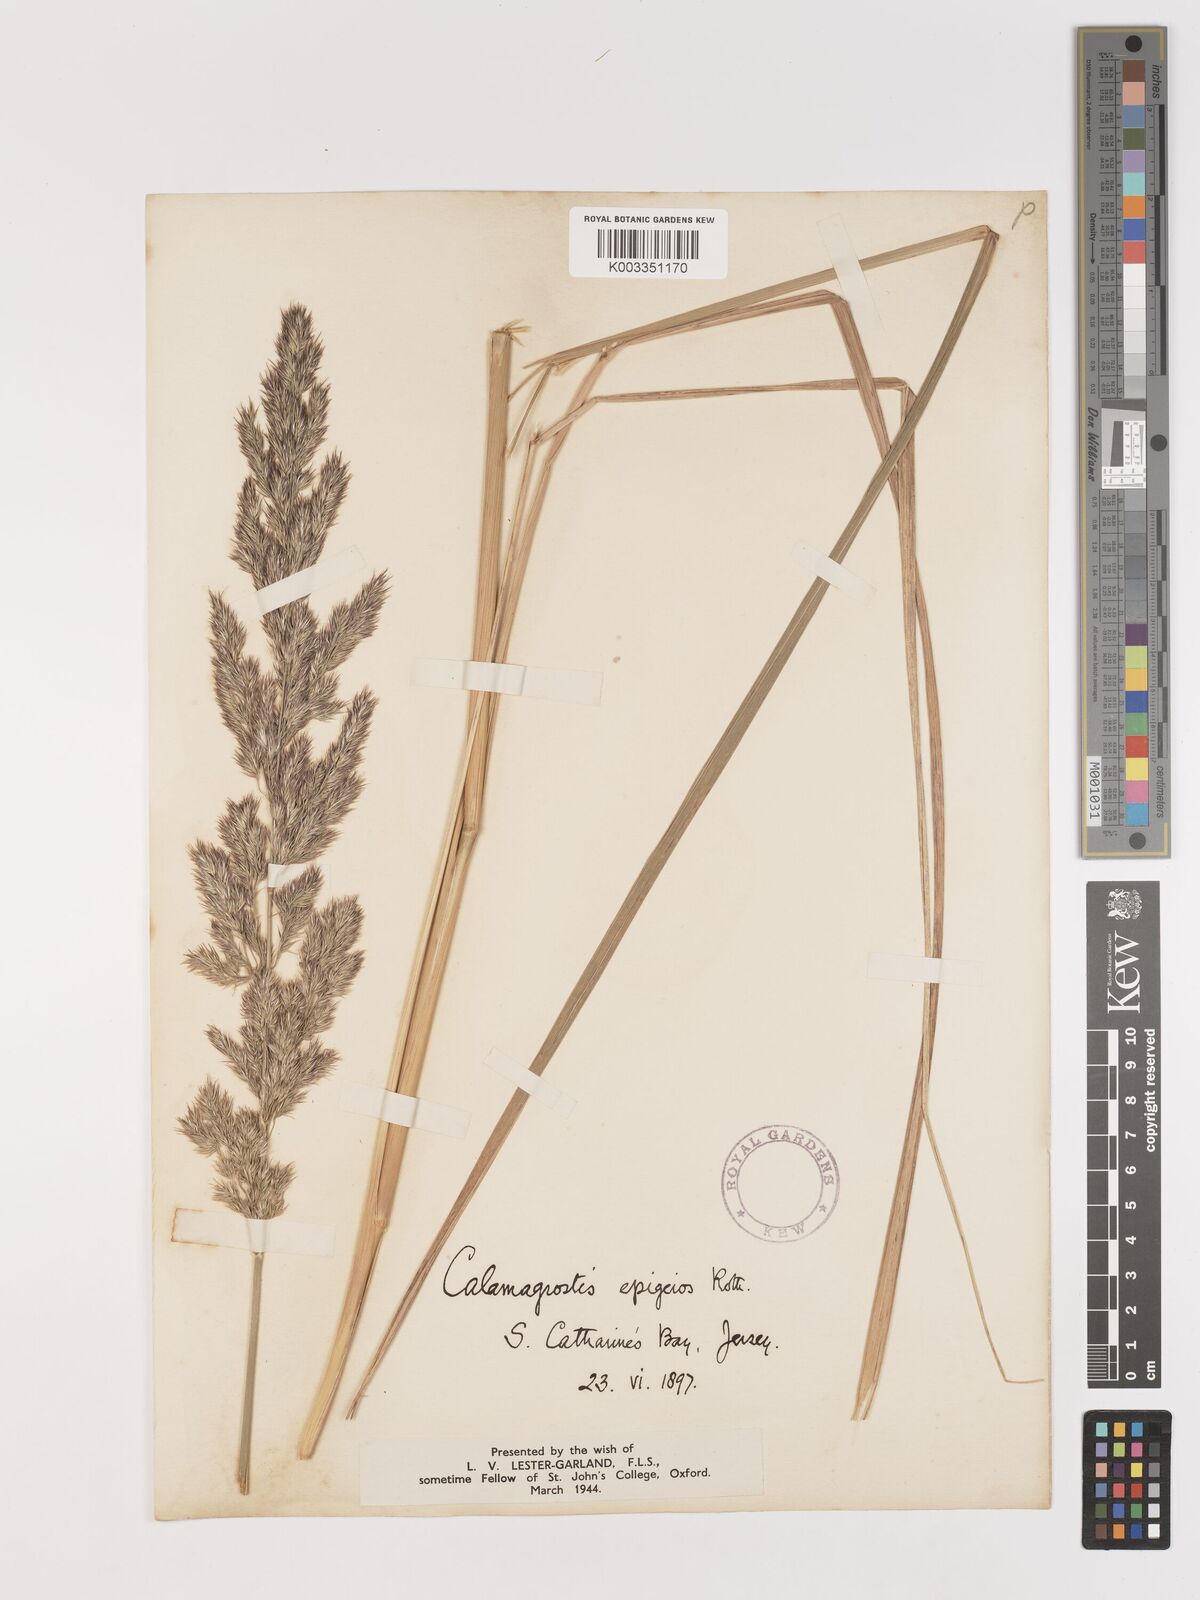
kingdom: Plantae
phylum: Tracheophyta
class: Liliopsida
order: Poales
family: Poaceae
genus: Calamagrostis
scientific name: Calamagrostis
